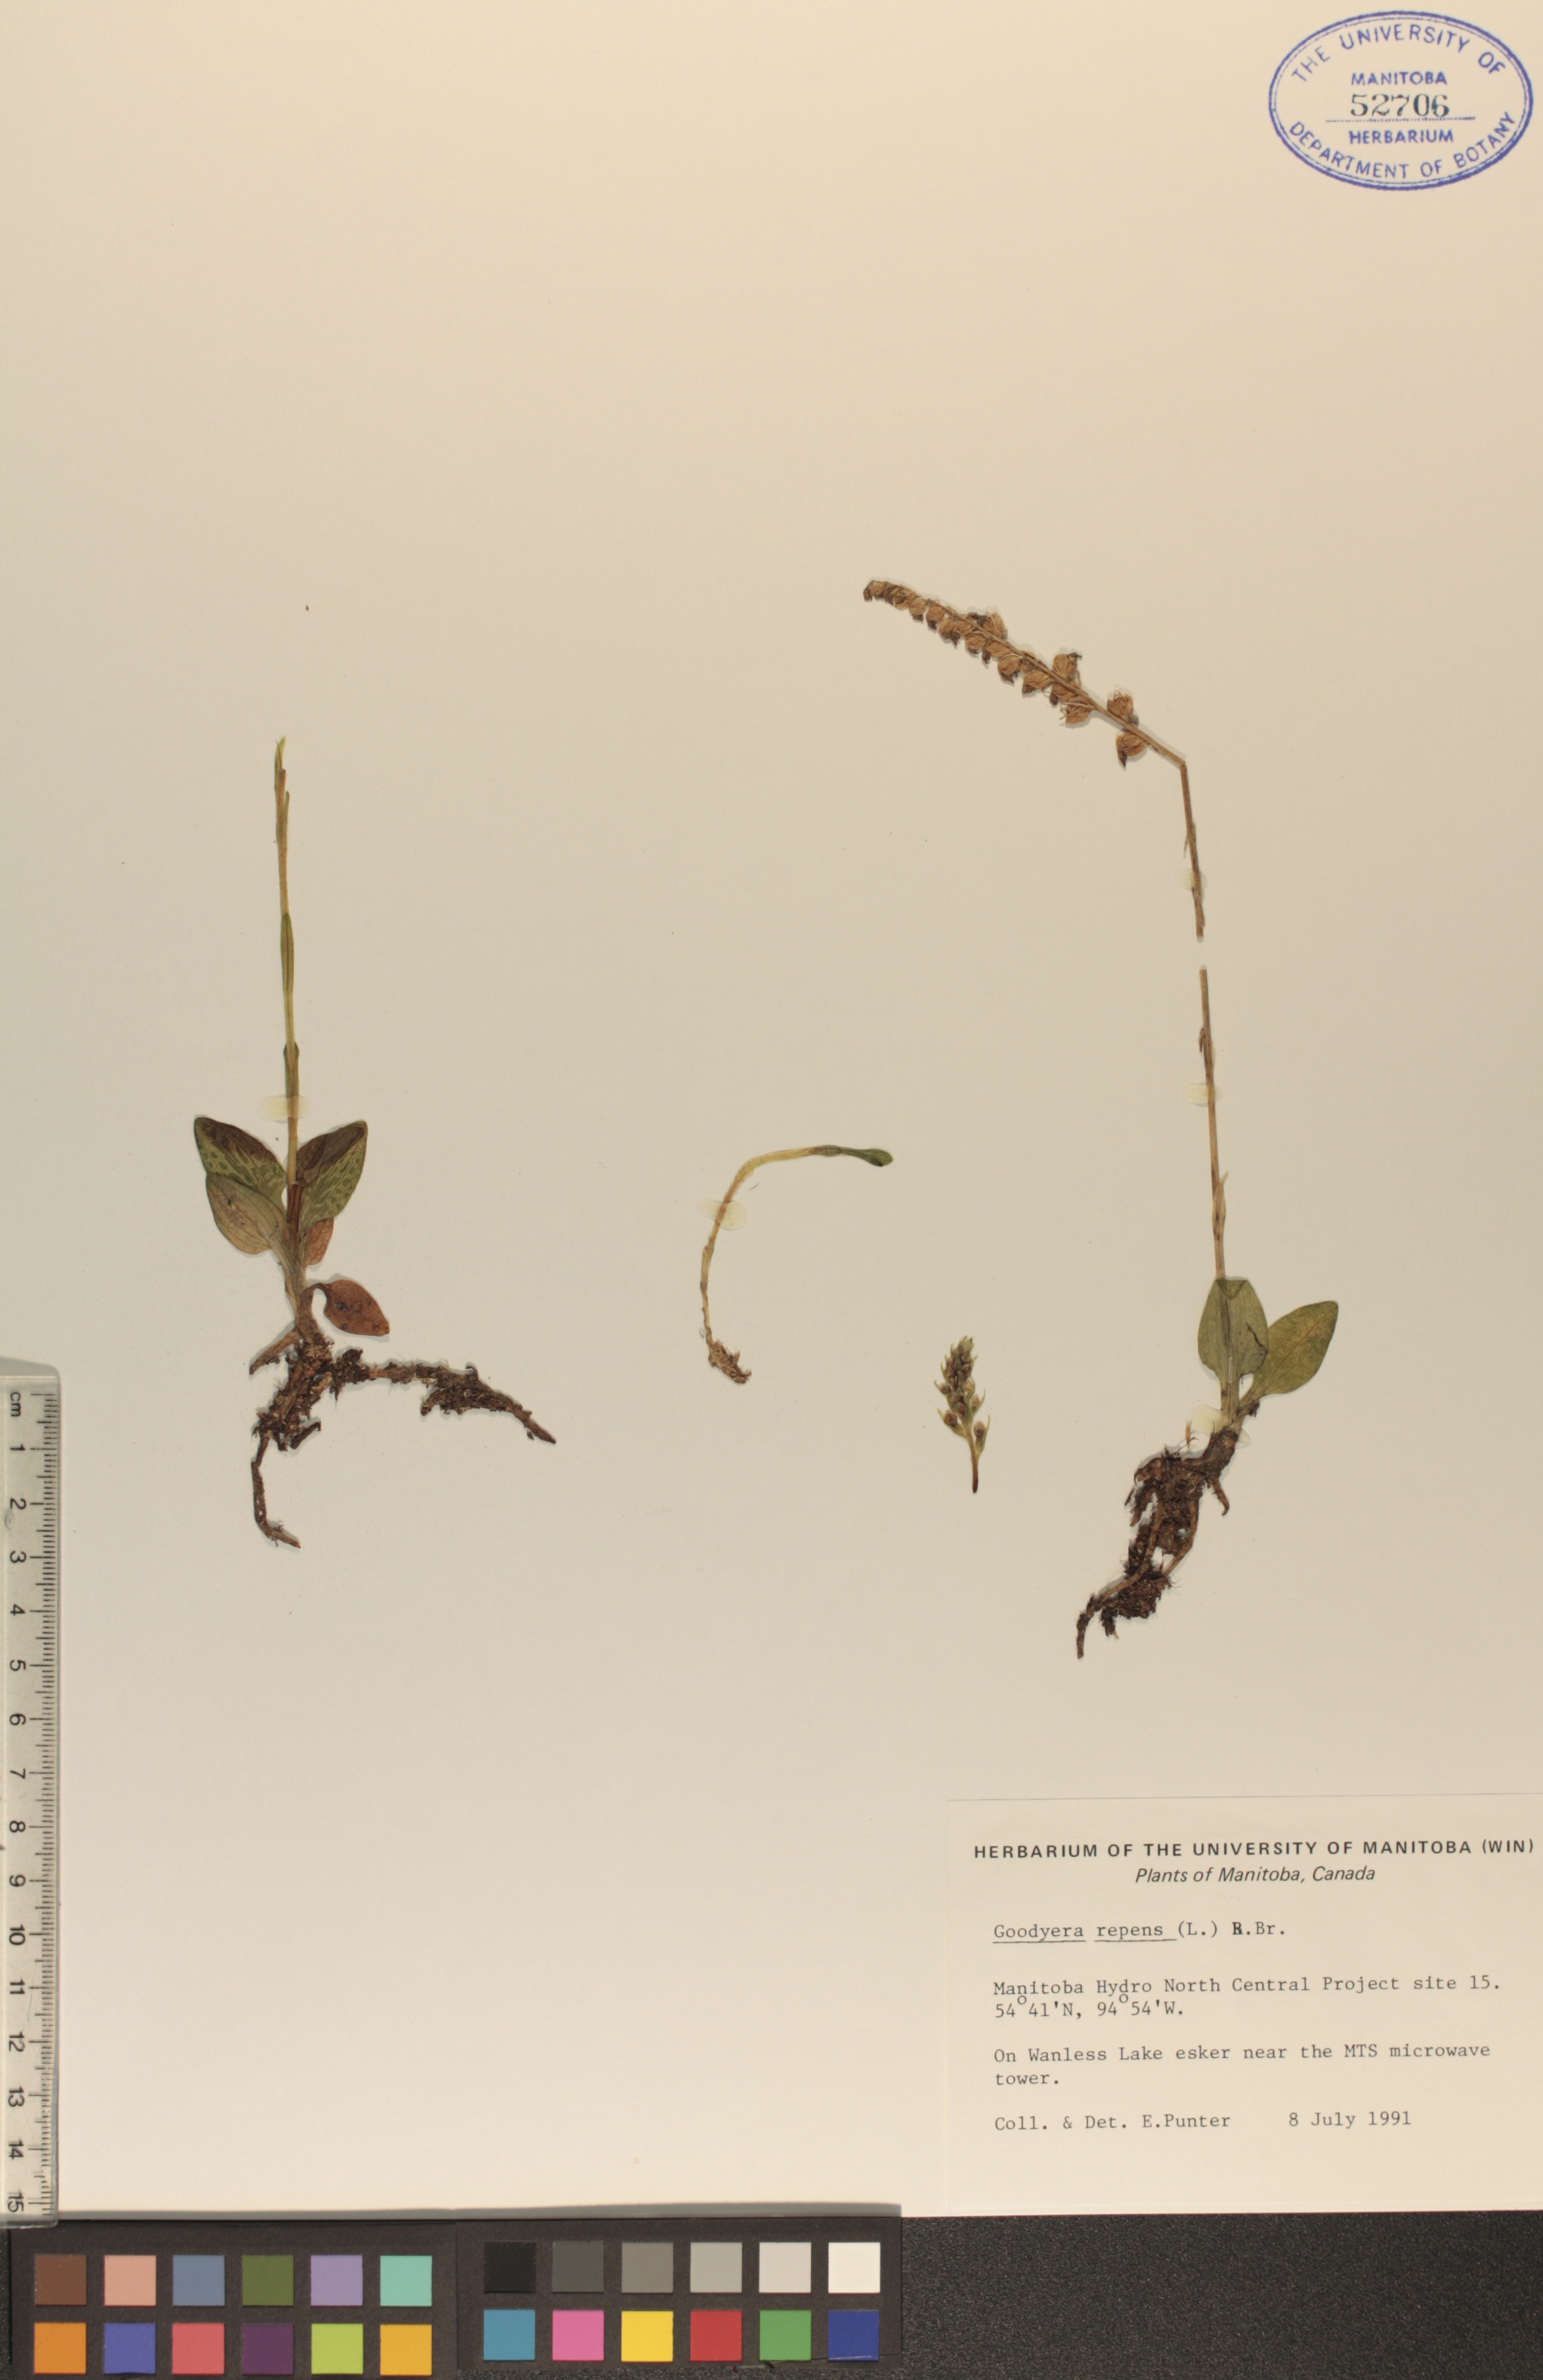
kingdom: Plantae
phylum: Tracheophyta
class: Liliopsida
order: Asparagales
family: Orchidaceae
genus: Goodyera
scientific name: Goodyera repens
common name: Creeping lady's-tresses
